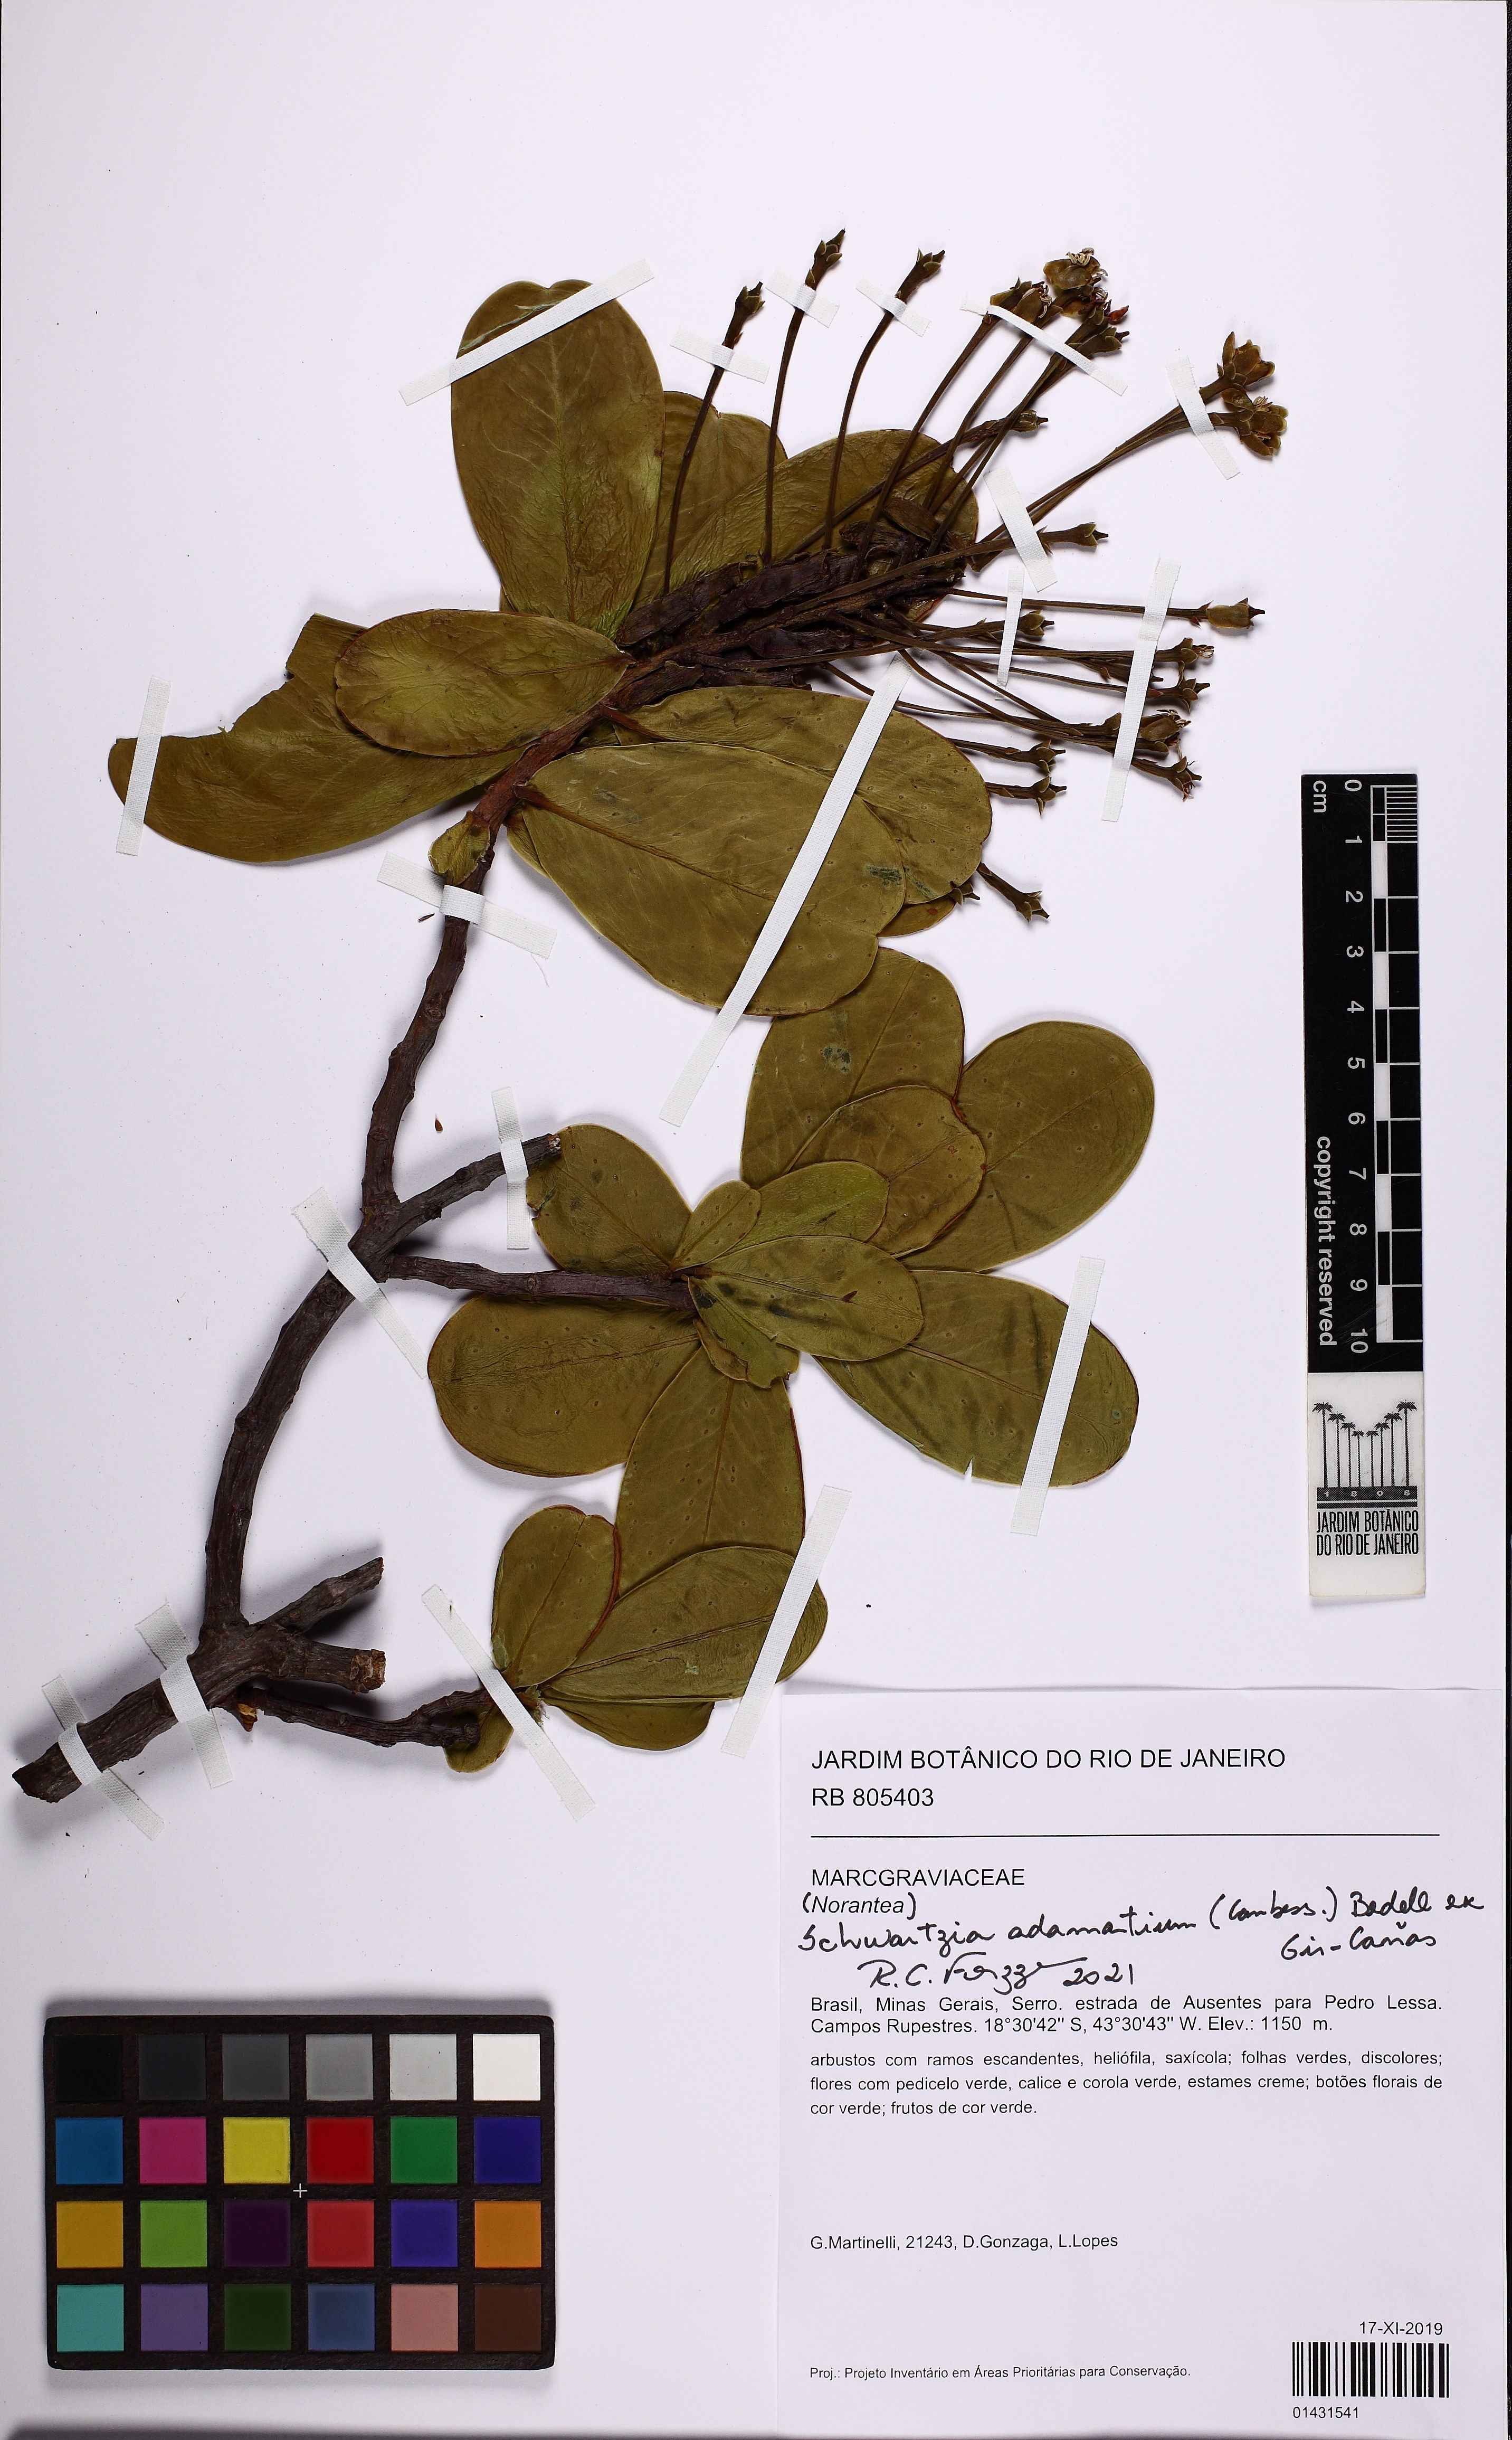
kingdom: Plantae
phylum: Tracheophyta
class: Magnoliopsida
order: Ericales
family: Marcgraviaceae
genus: Schwartzia
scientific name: Schwartzia adamantium
